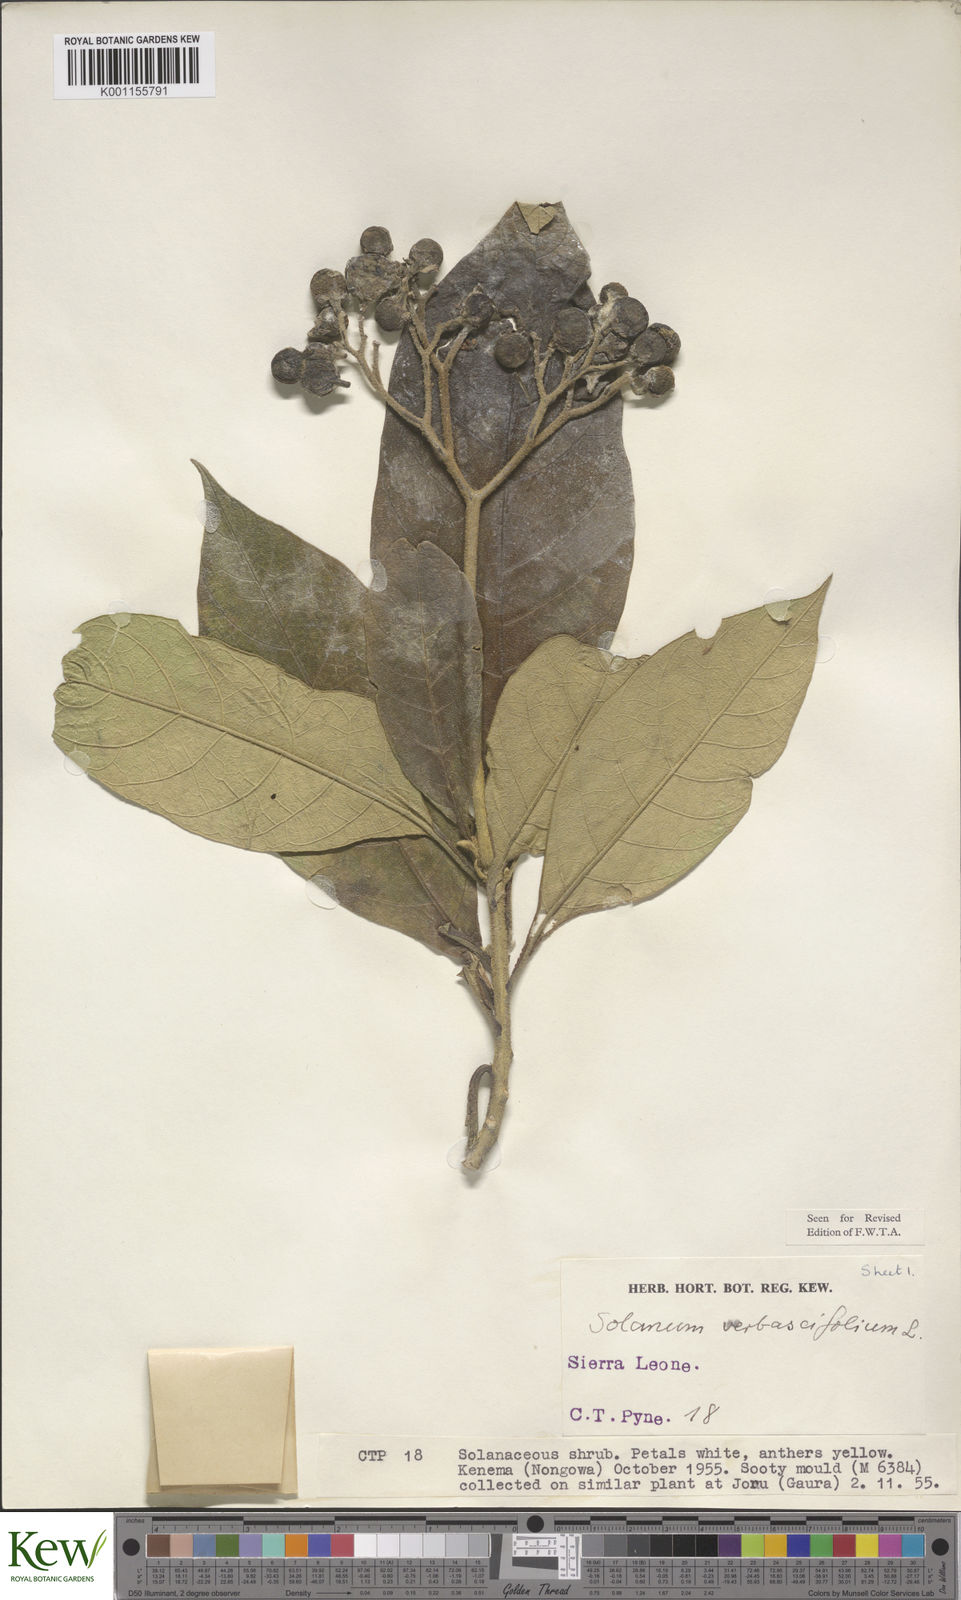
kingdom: Plantae
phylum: Tracheophyta
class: Magnoliopsida
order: Solanales
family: Solanaceae
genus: Solanum
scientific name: Solanum rugosum
